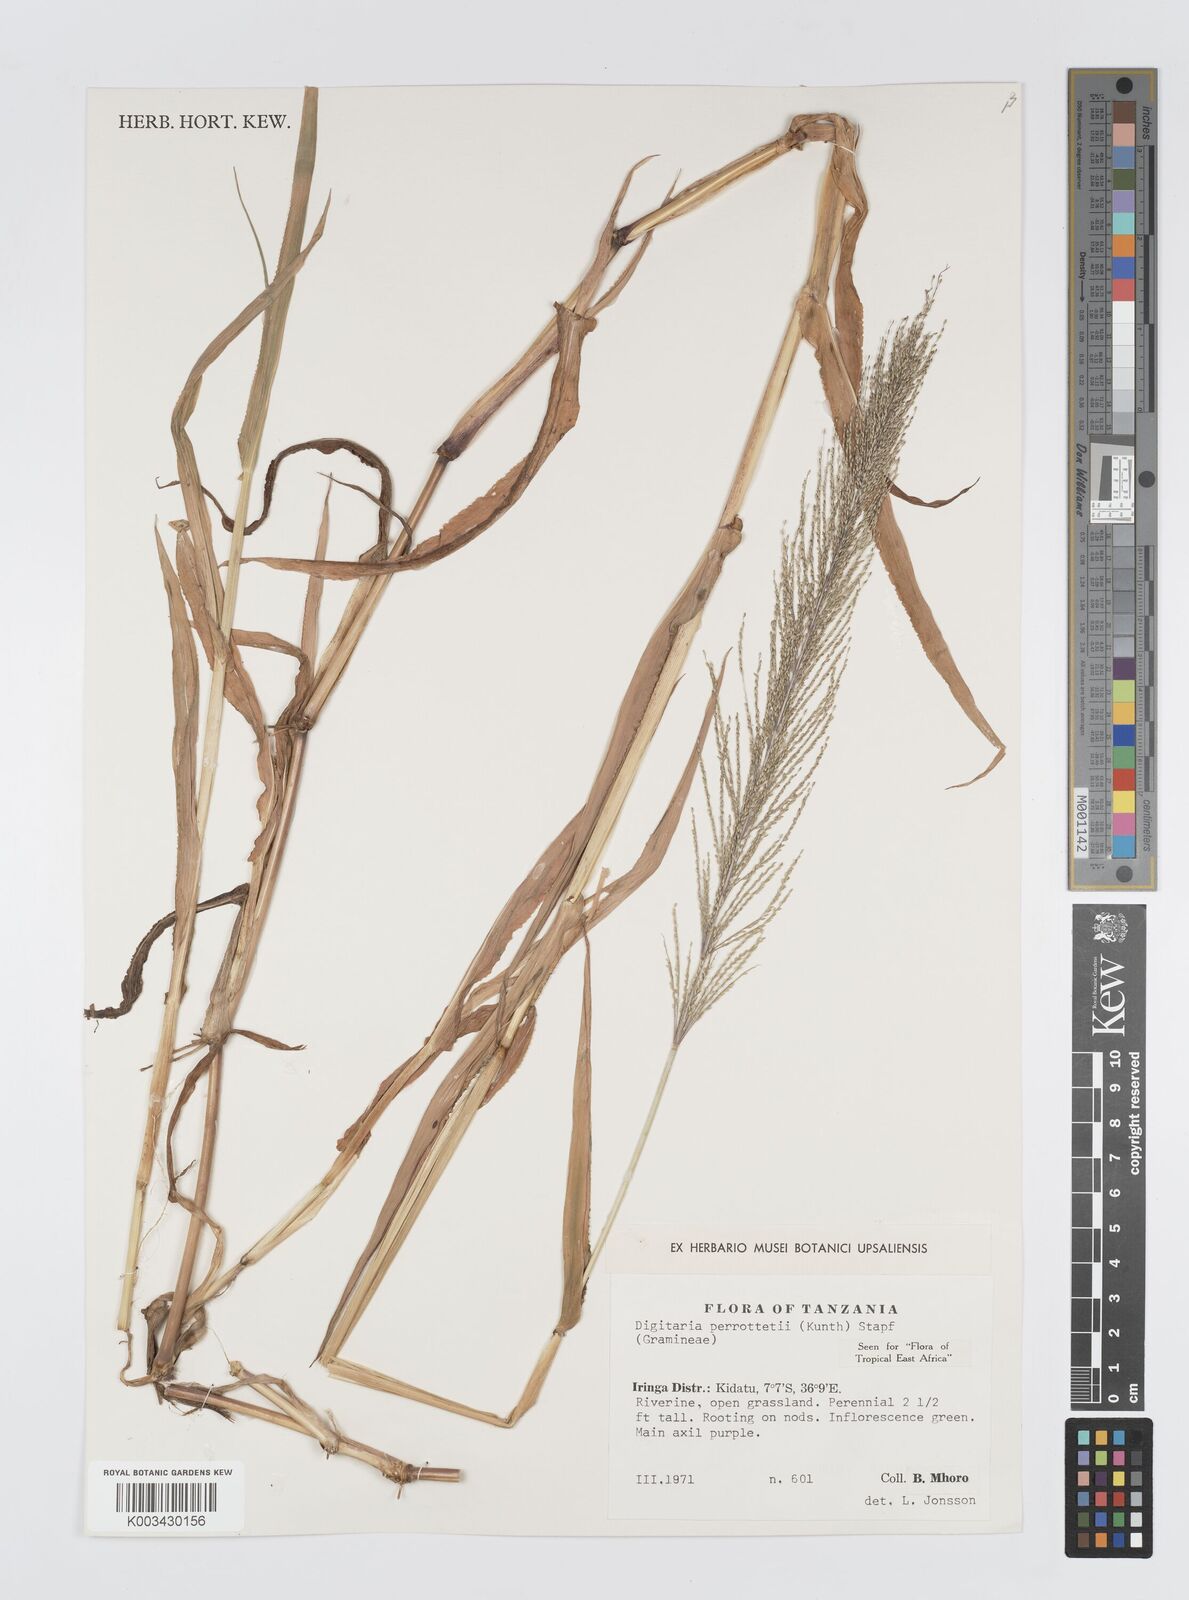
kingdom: Plantae
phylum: Tracheophyta
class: Liliopsida
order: Poales
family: Poaceae
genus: Digitaria
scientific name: Digitaria perrottetii
